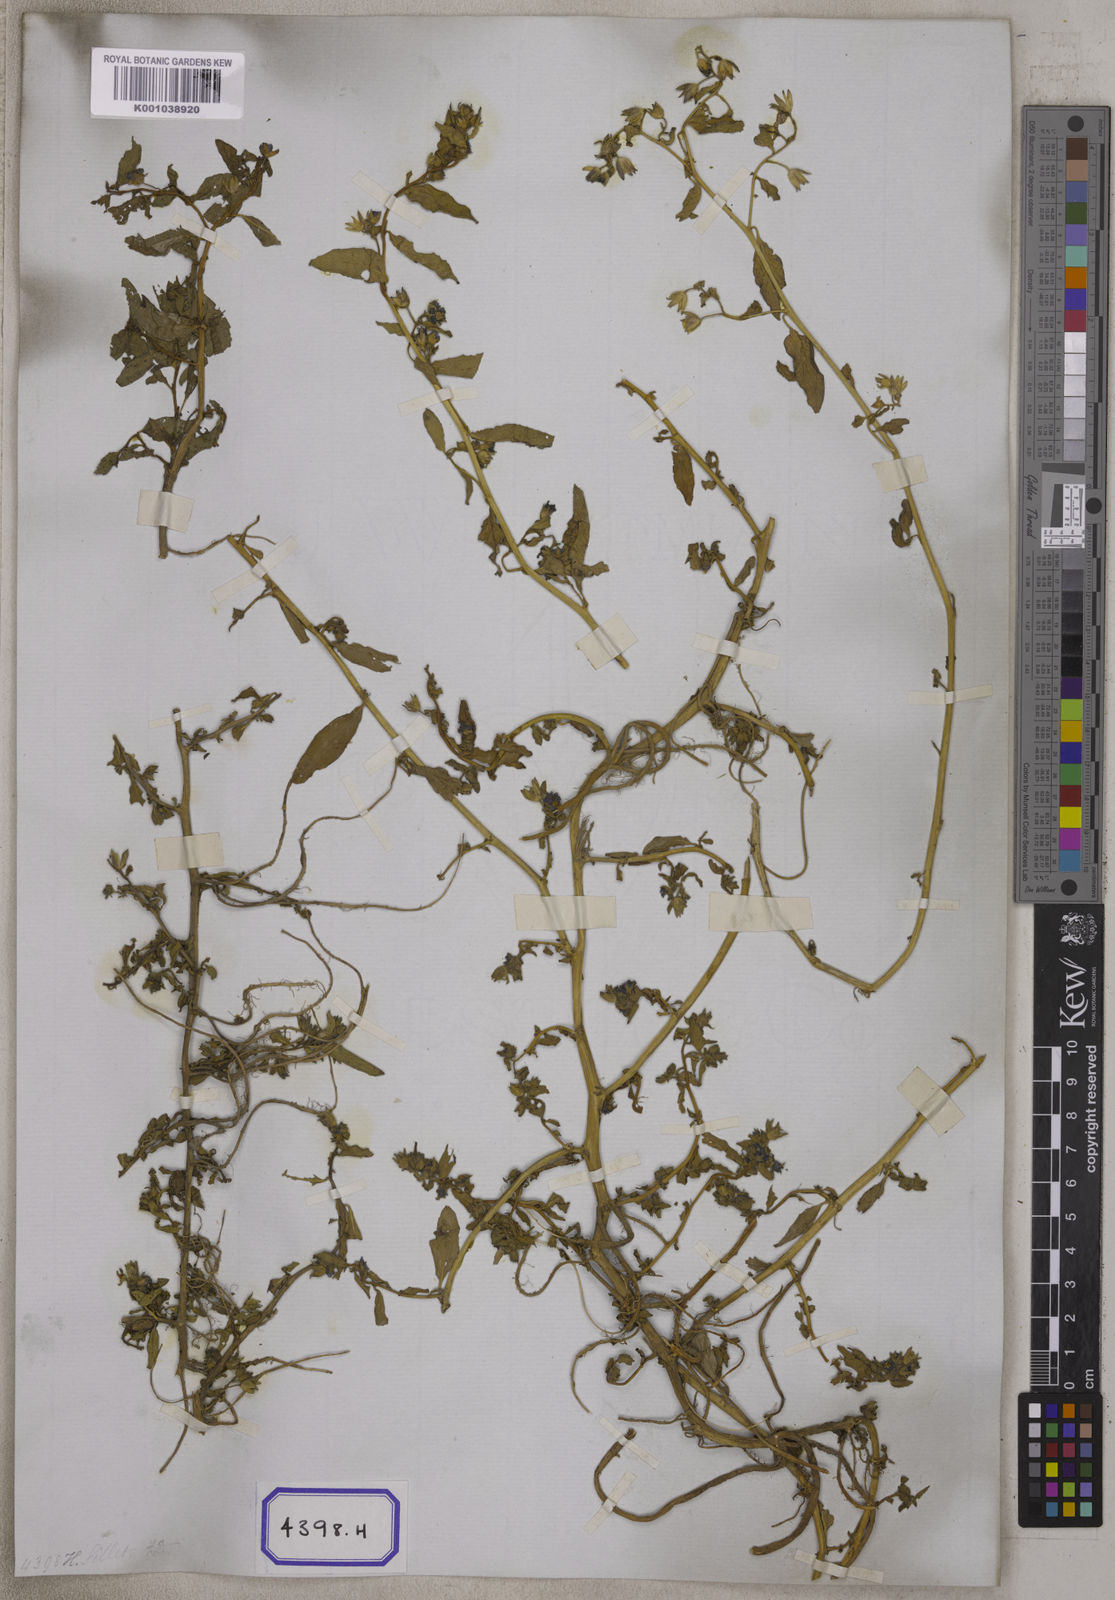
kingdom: Plantae
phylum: Tracheophyta
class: Magnoliopsida
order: Solanales
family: Hydroleaceae
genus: Hydrolea
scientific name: Hydrolea zeylanica
